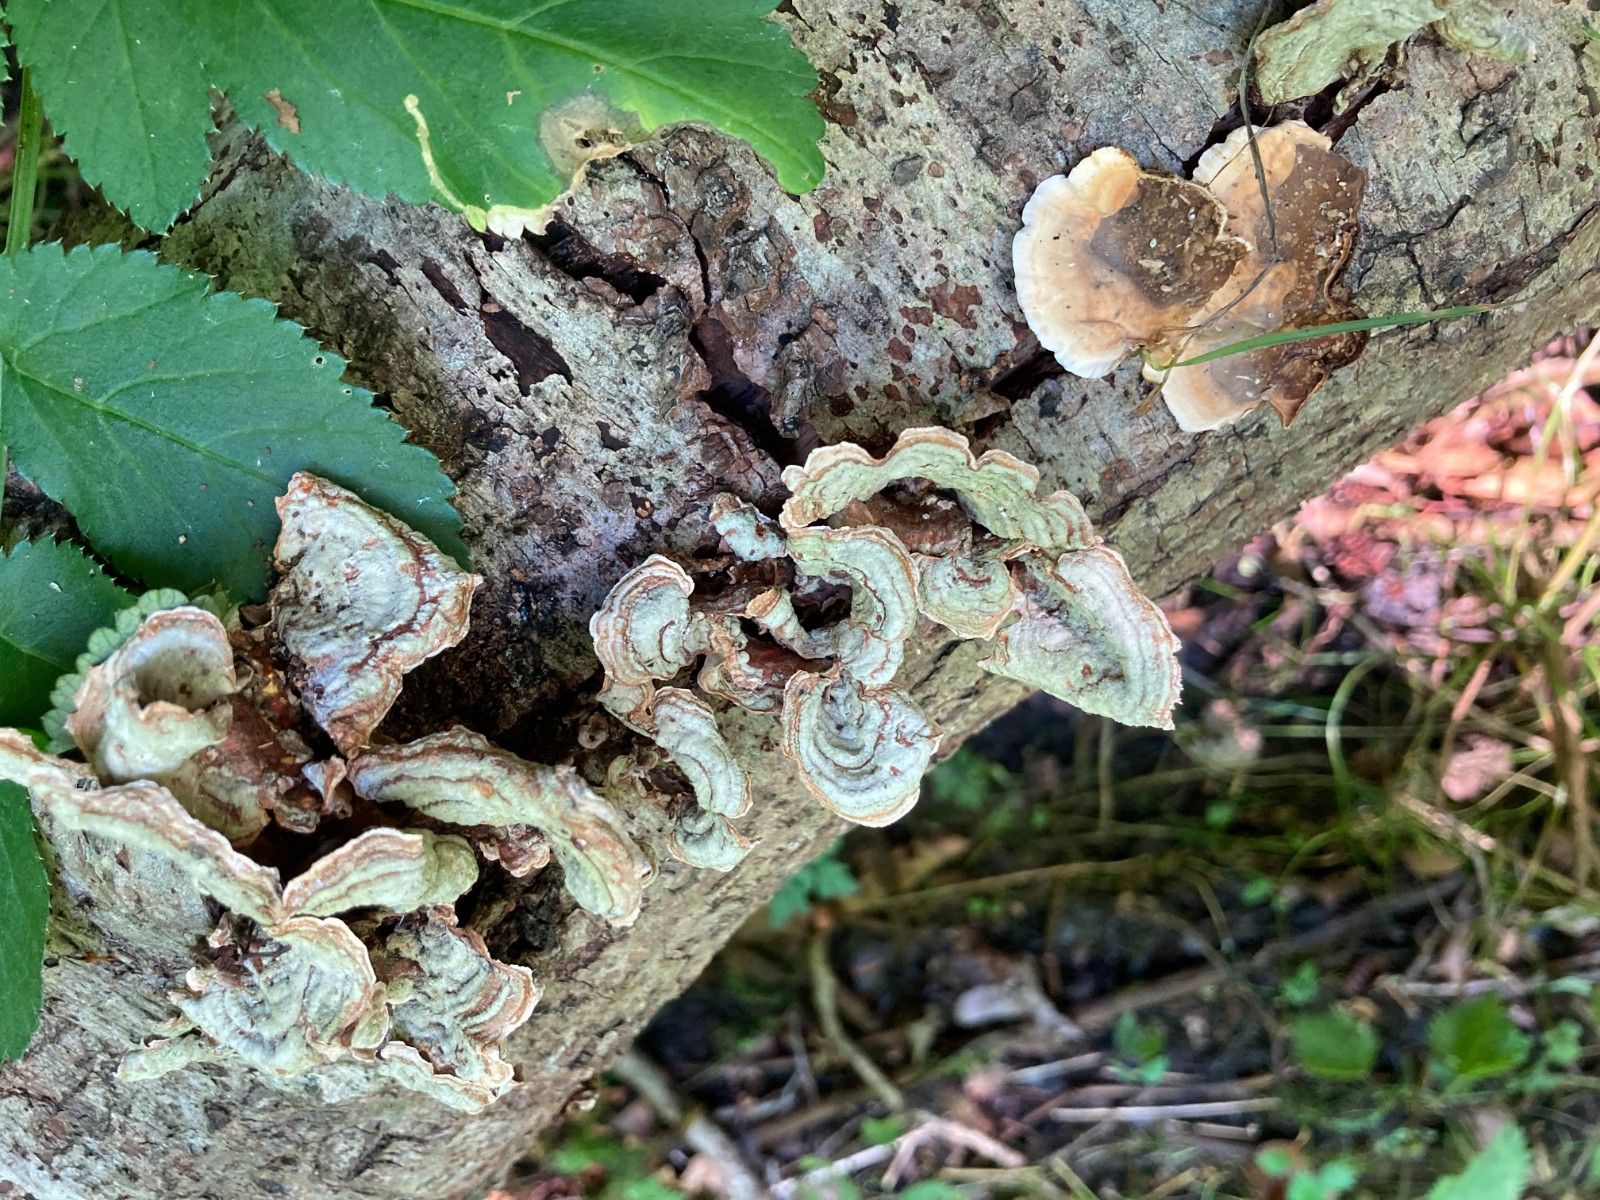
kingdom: Fungi
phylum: Basidiomycota
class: Agaricomycetes
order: Russulales
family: Stereaceae
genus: Stereum
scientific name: Stereum subtomentosum
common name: smuk lædersvamp
